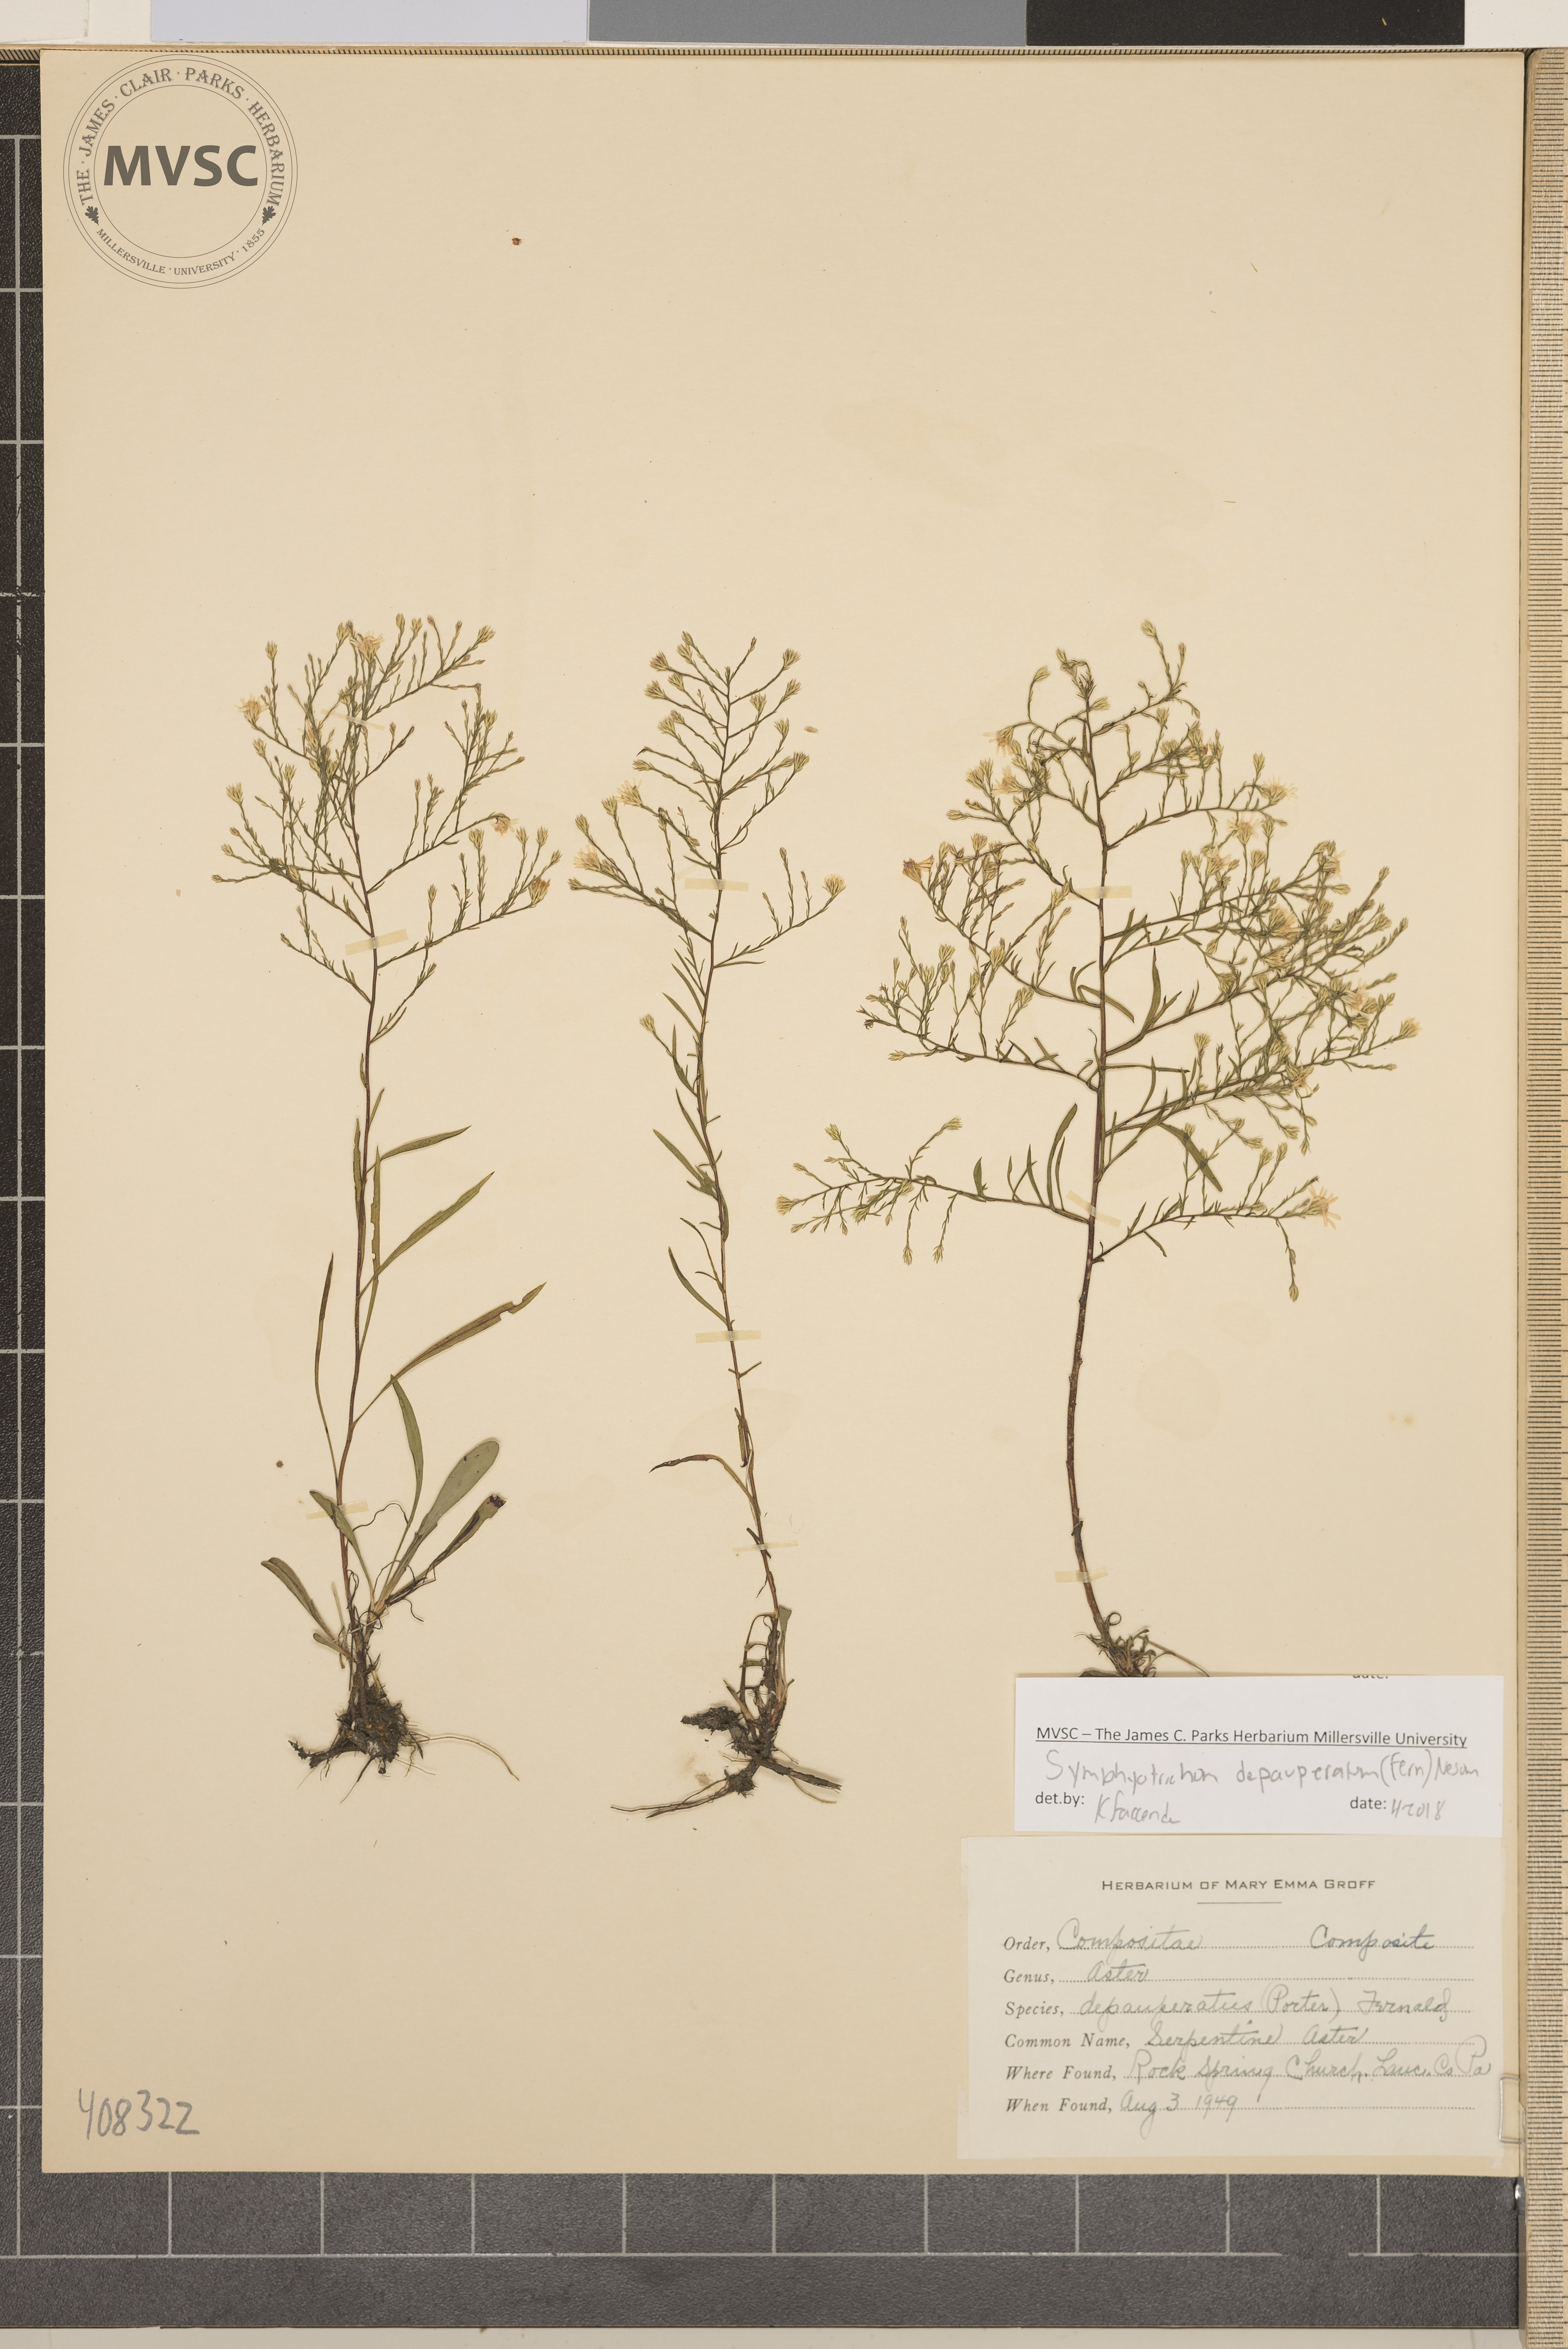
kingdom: Plantae
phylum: Tracheophyta
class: Magnoliopsida
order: Asterales
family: Asteraceae
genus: Symphyotrichum
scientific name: Symphyotrichum depauperatum
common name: serpentine aster
